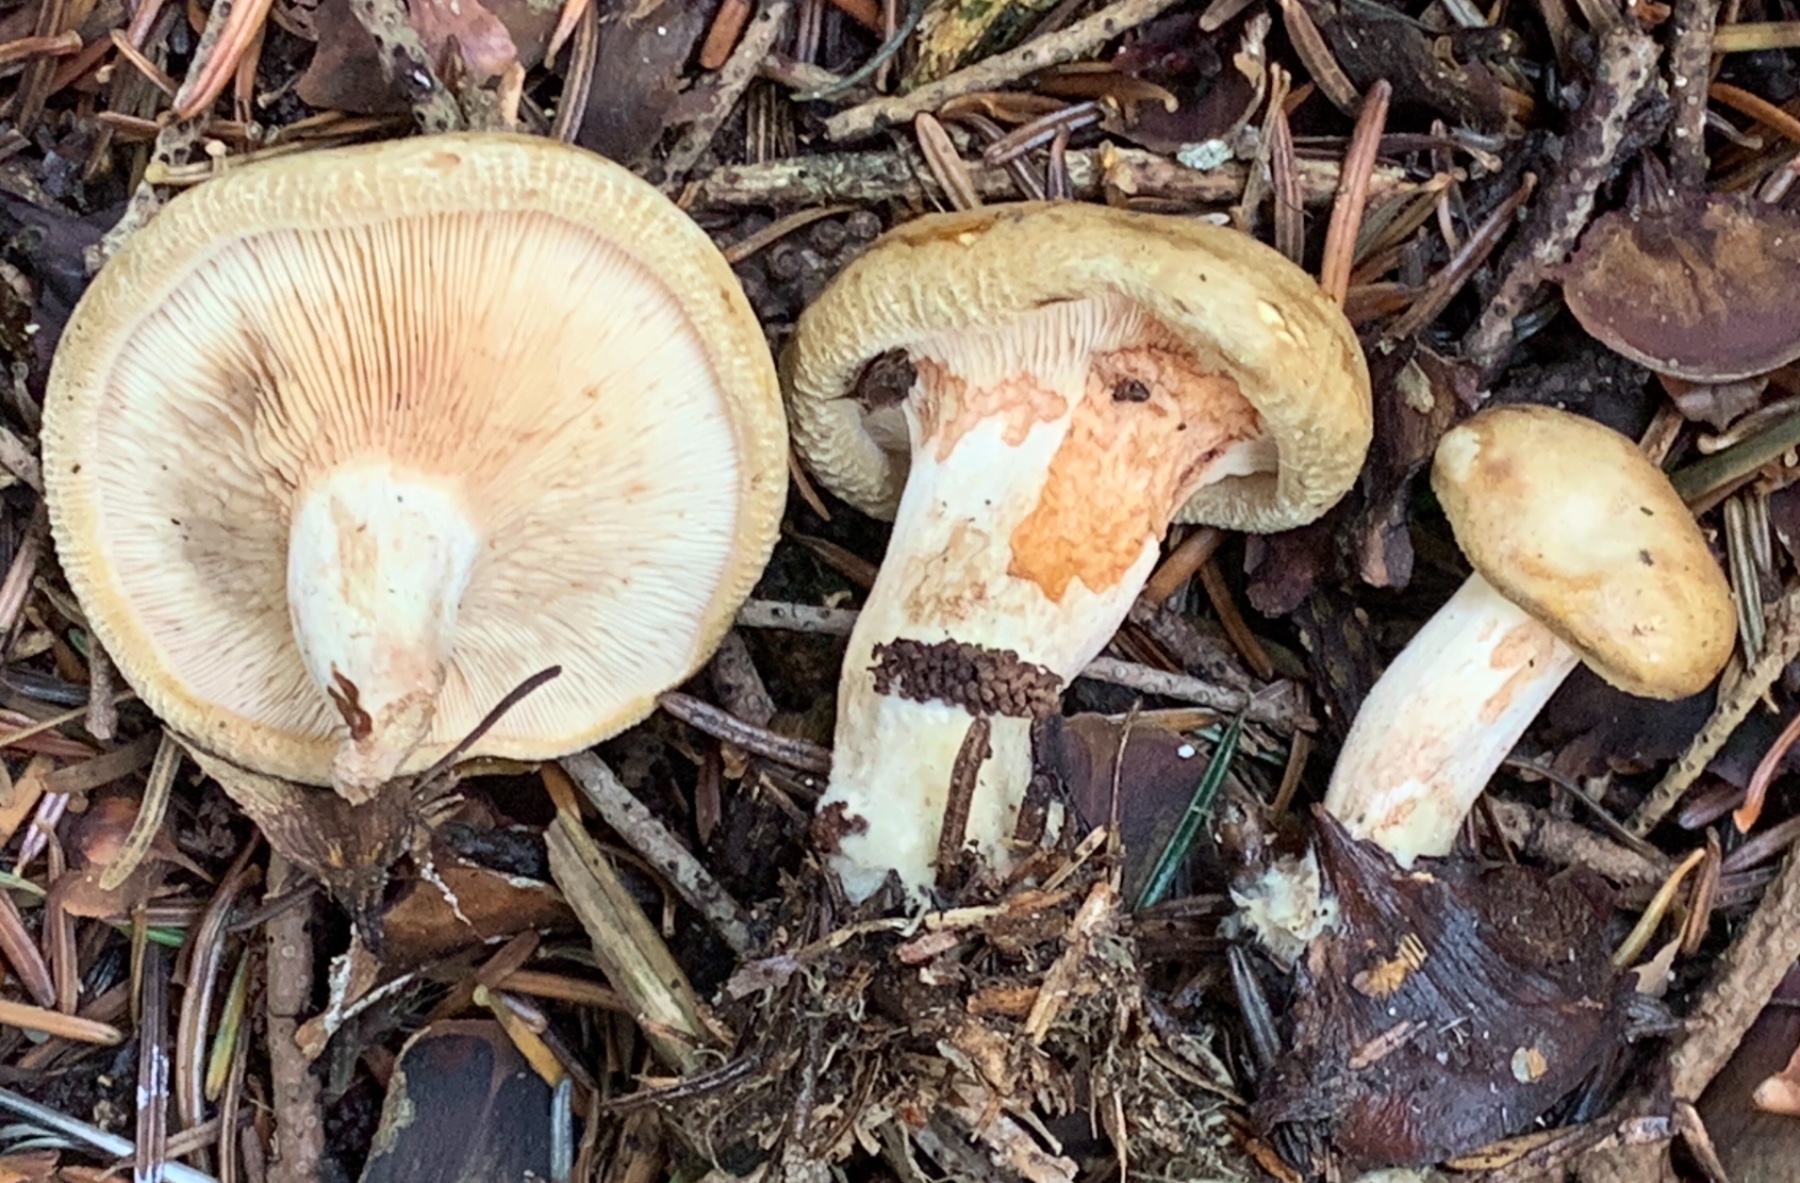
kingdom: Fungi
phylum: Basidiomycota
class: Agaricomycetes
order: Boletales
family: Paxillaceae
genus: Paxillus
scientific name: Paxillus involutus
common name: almindelig netbladhat
